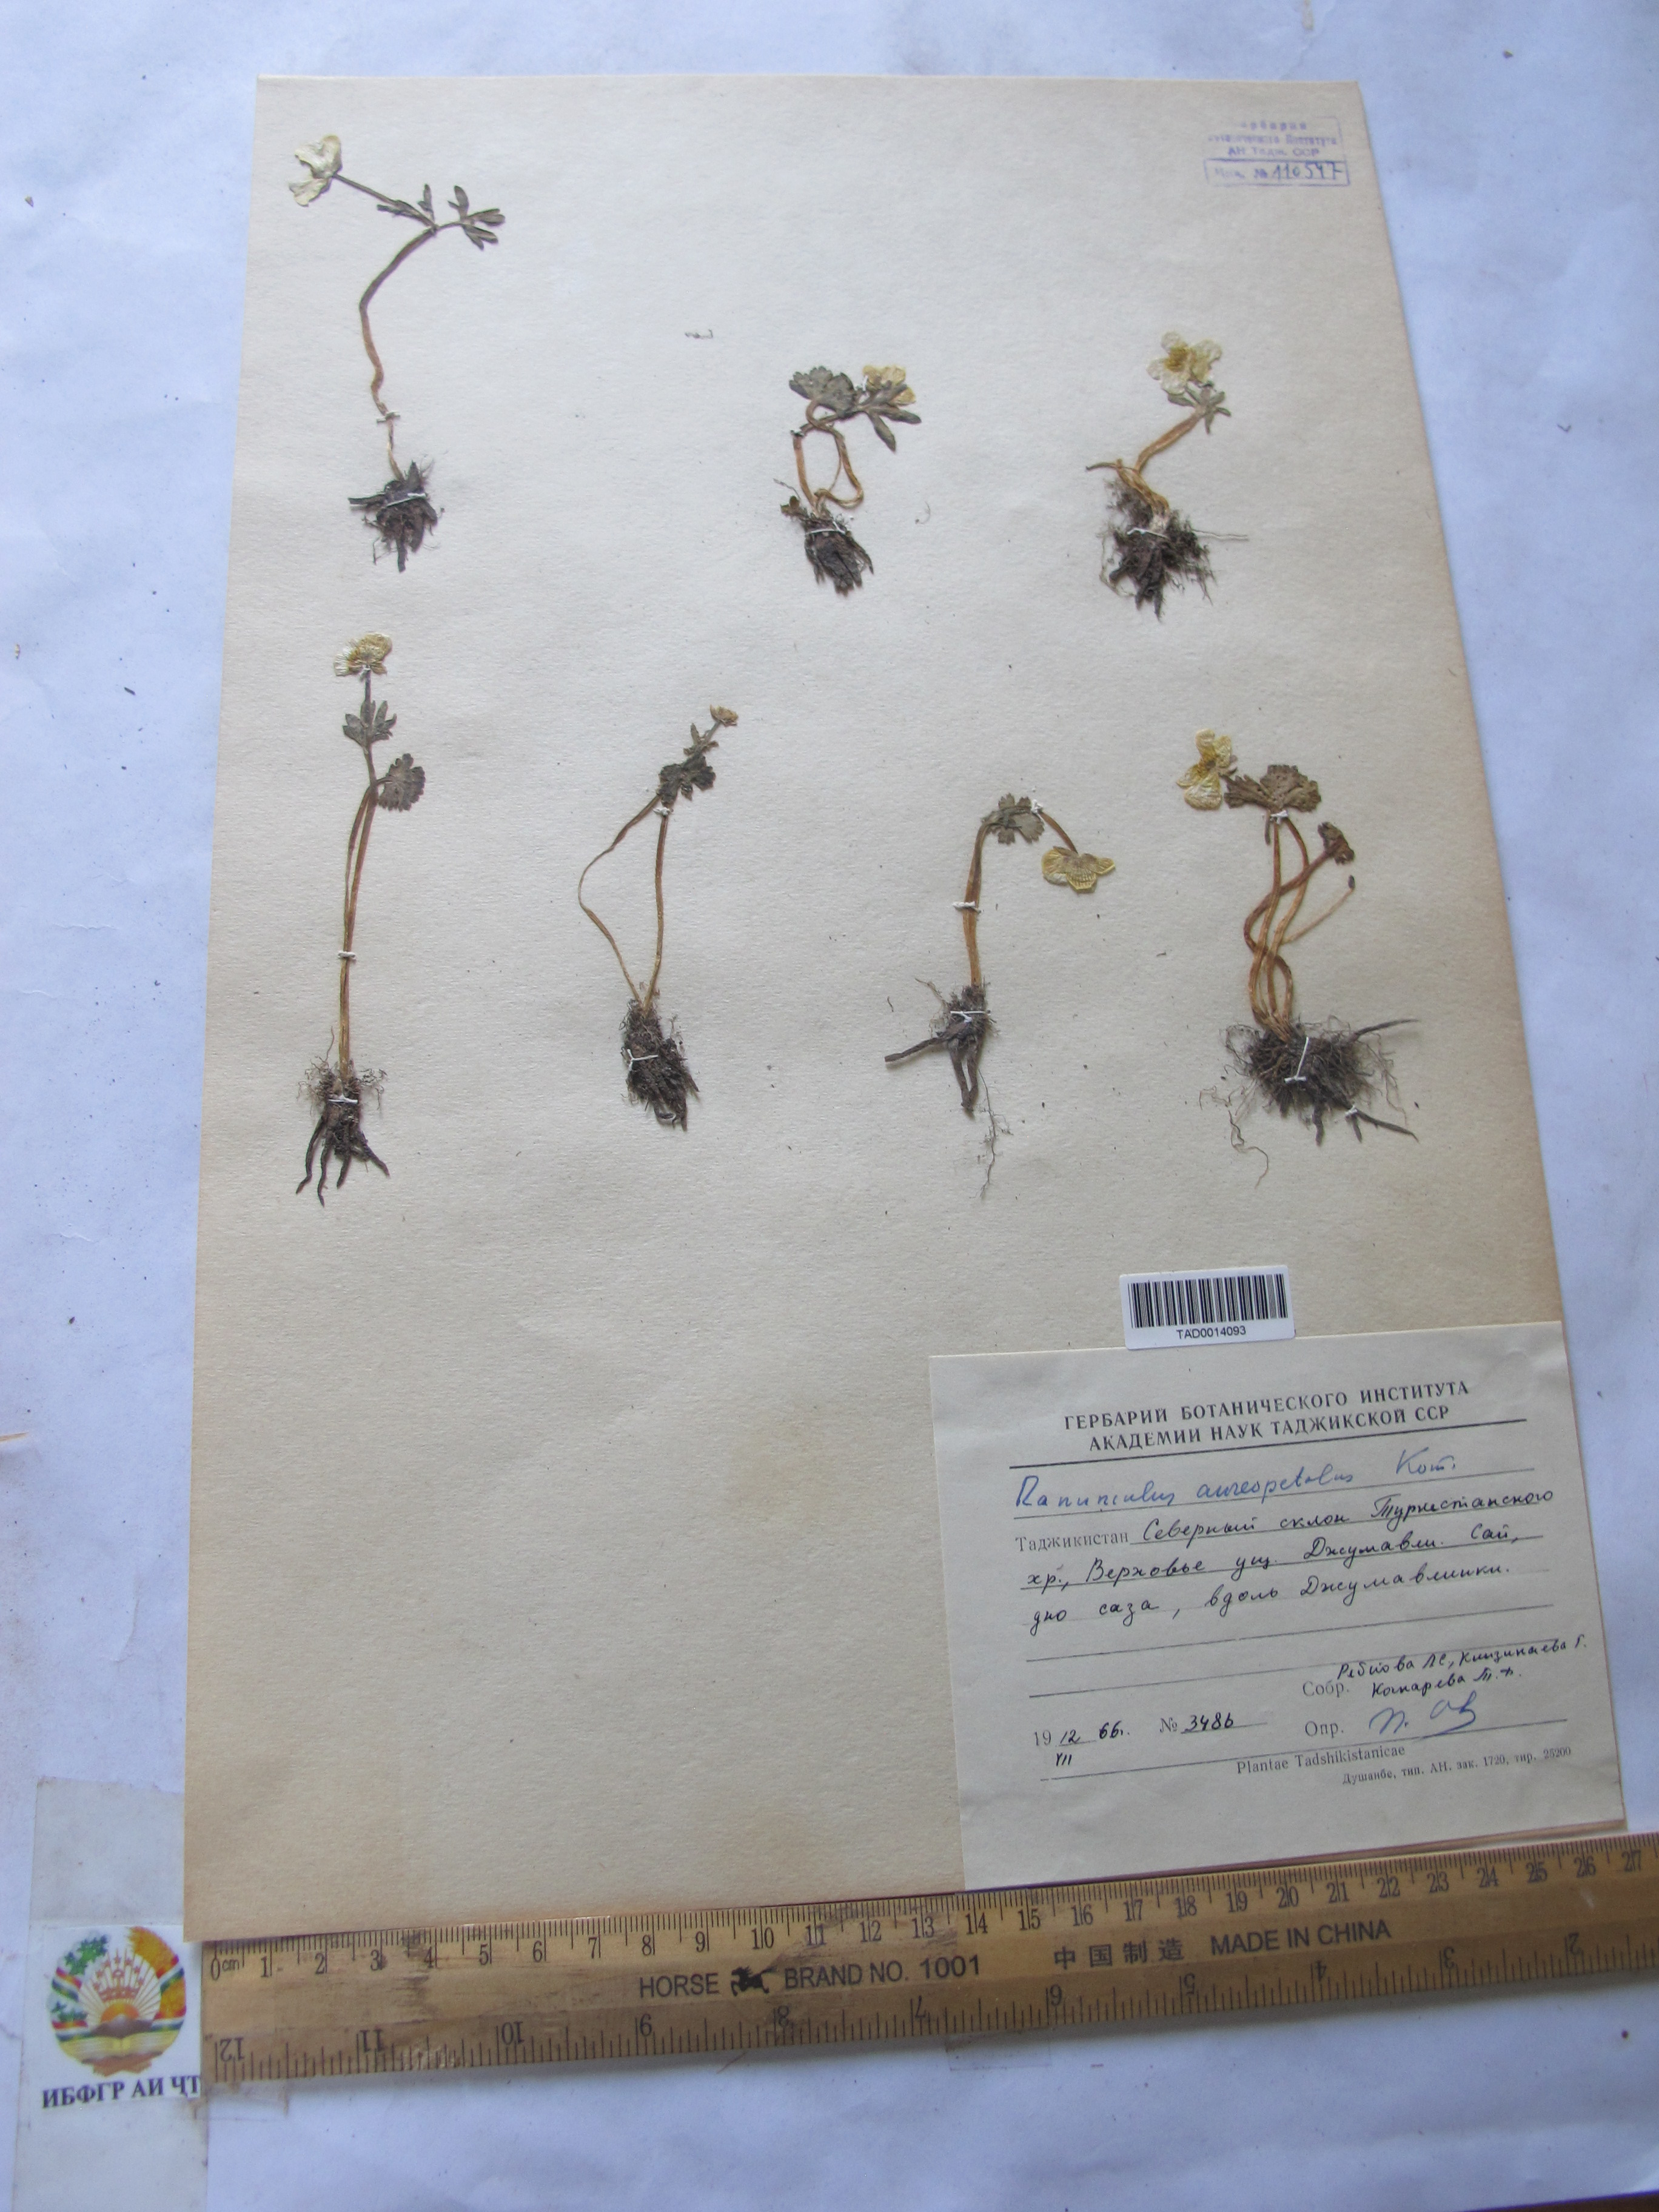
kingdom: Plantae
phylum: Tracheophyta
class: Magnoliopsida
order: Ranunculales
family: Ranunculaceae
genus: Ranunculus
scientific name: Ranunculus aureopetalus
